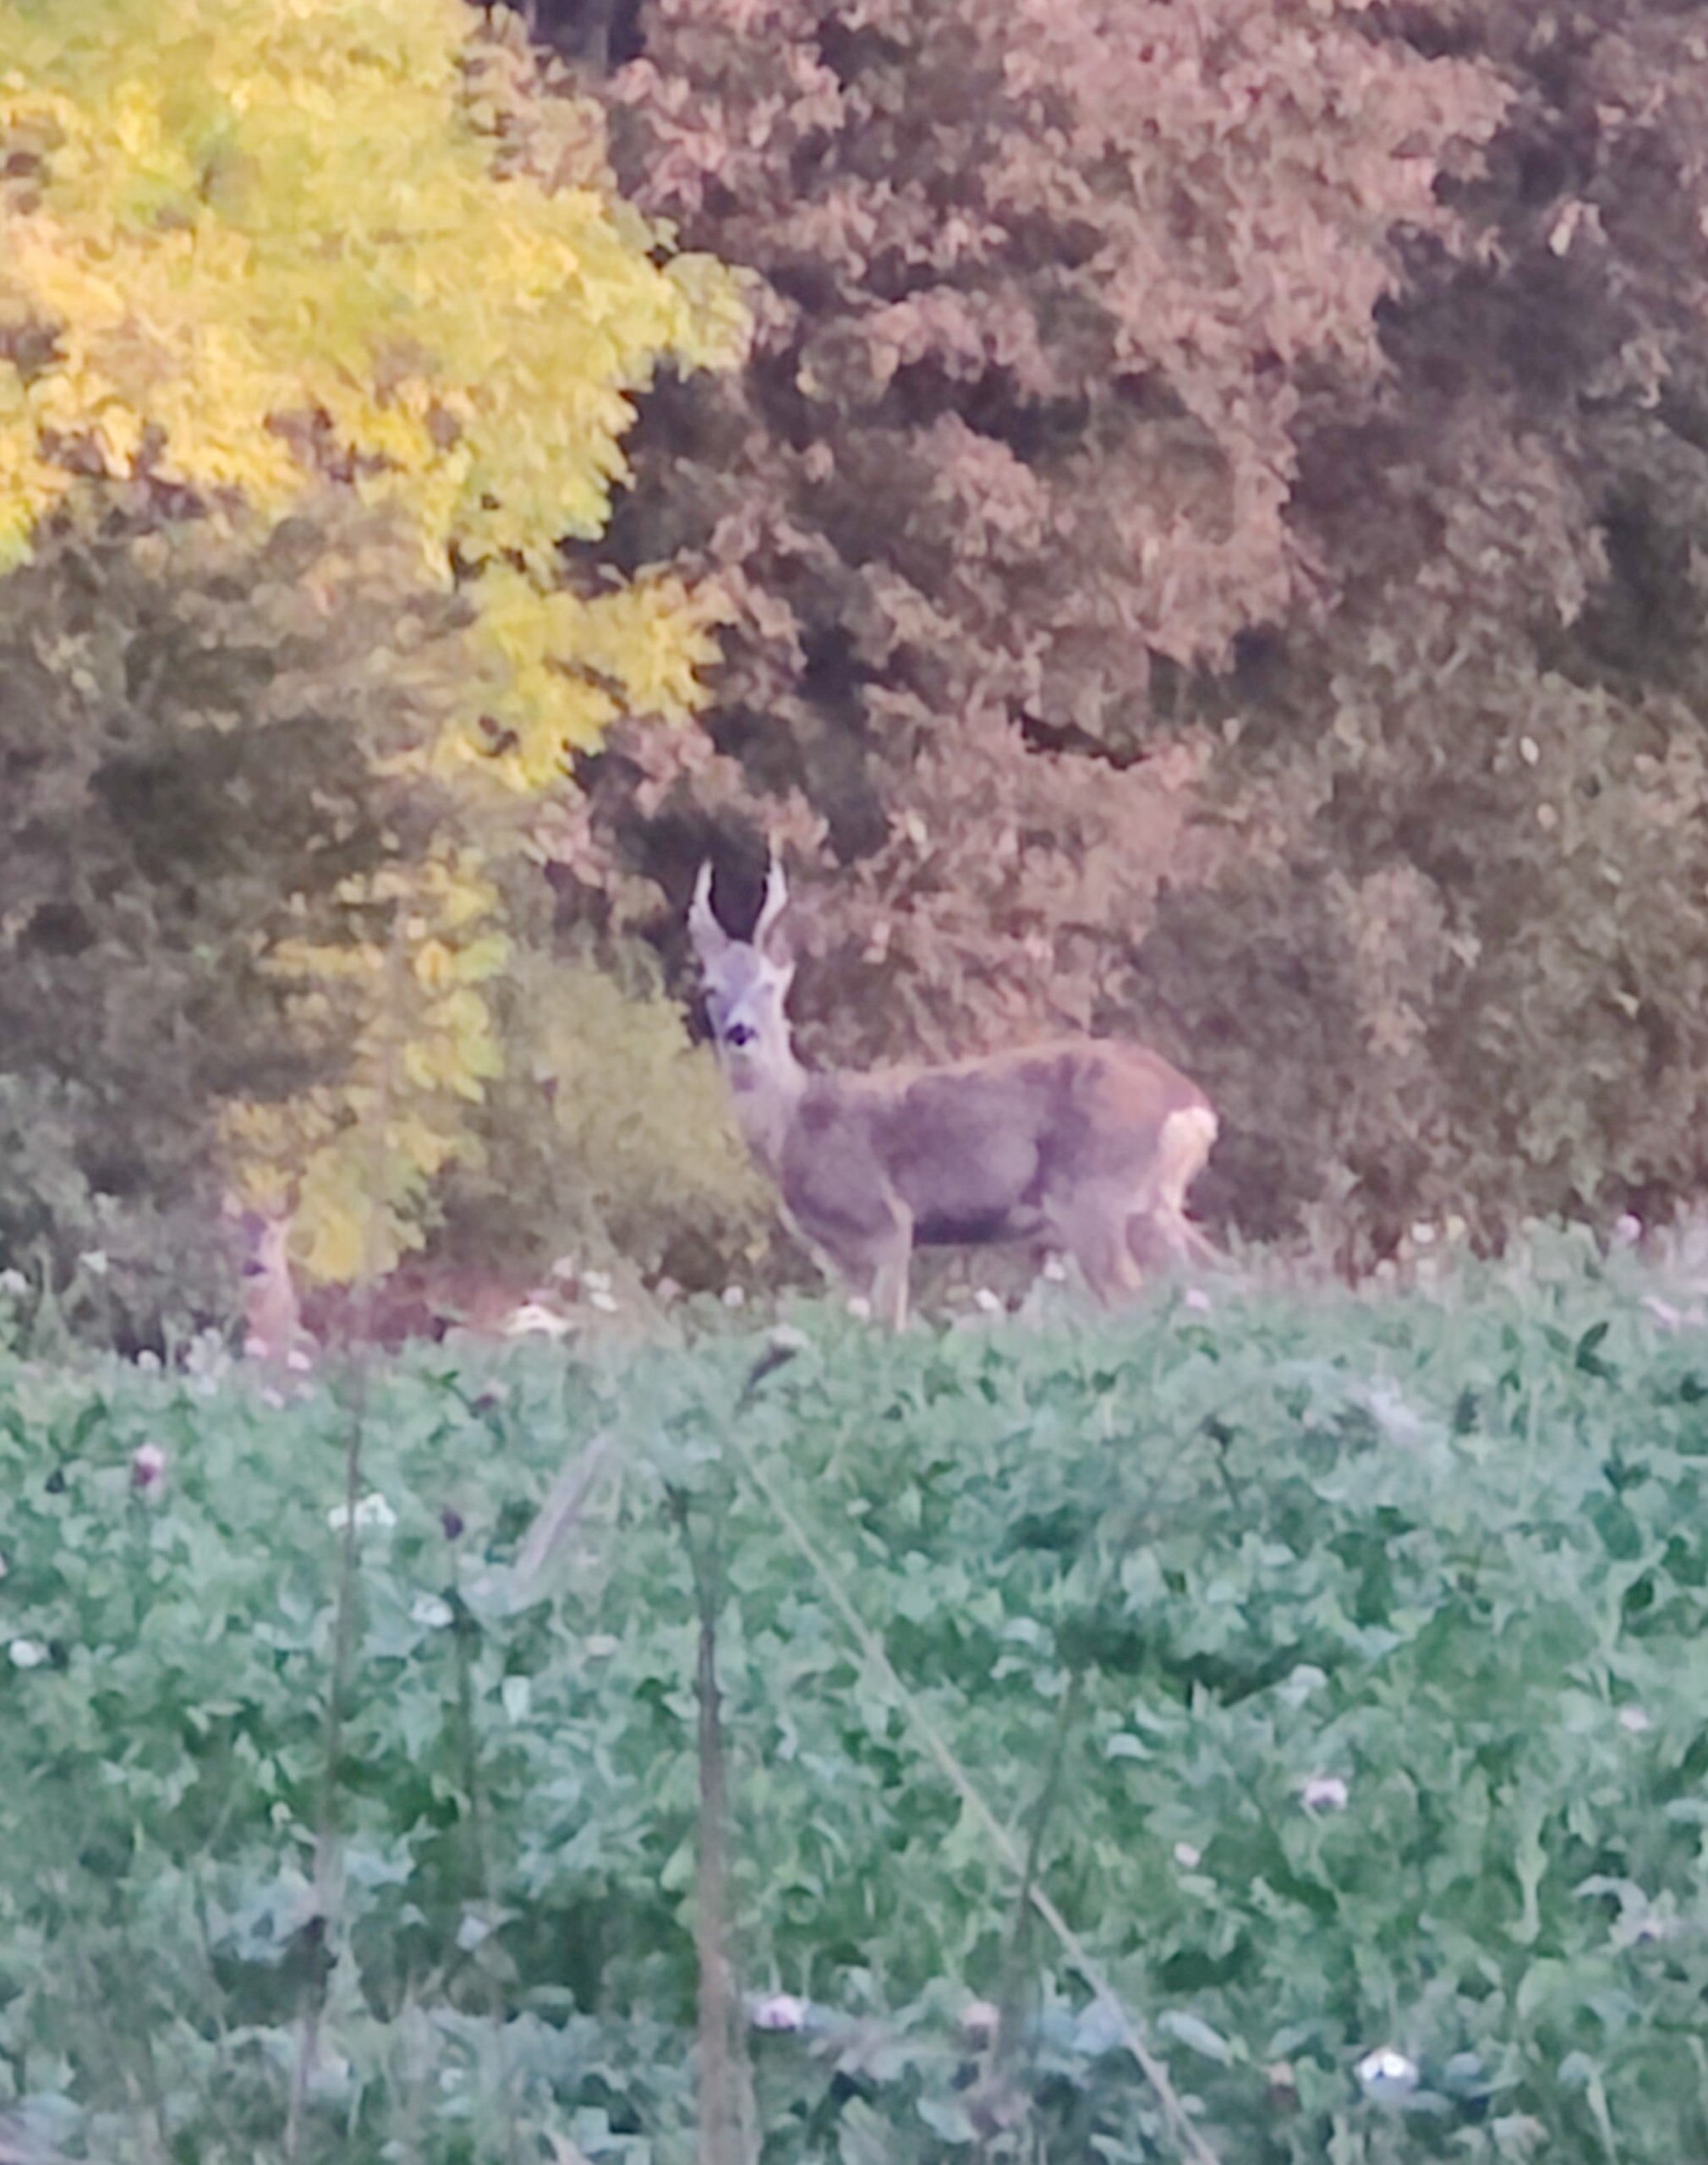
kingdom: Animalia
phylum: Chordata
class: Mammalia
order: Artiodactyla
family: Cervidae
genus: Capreolus
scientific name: Capreolus capreolus
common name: Rådyr
